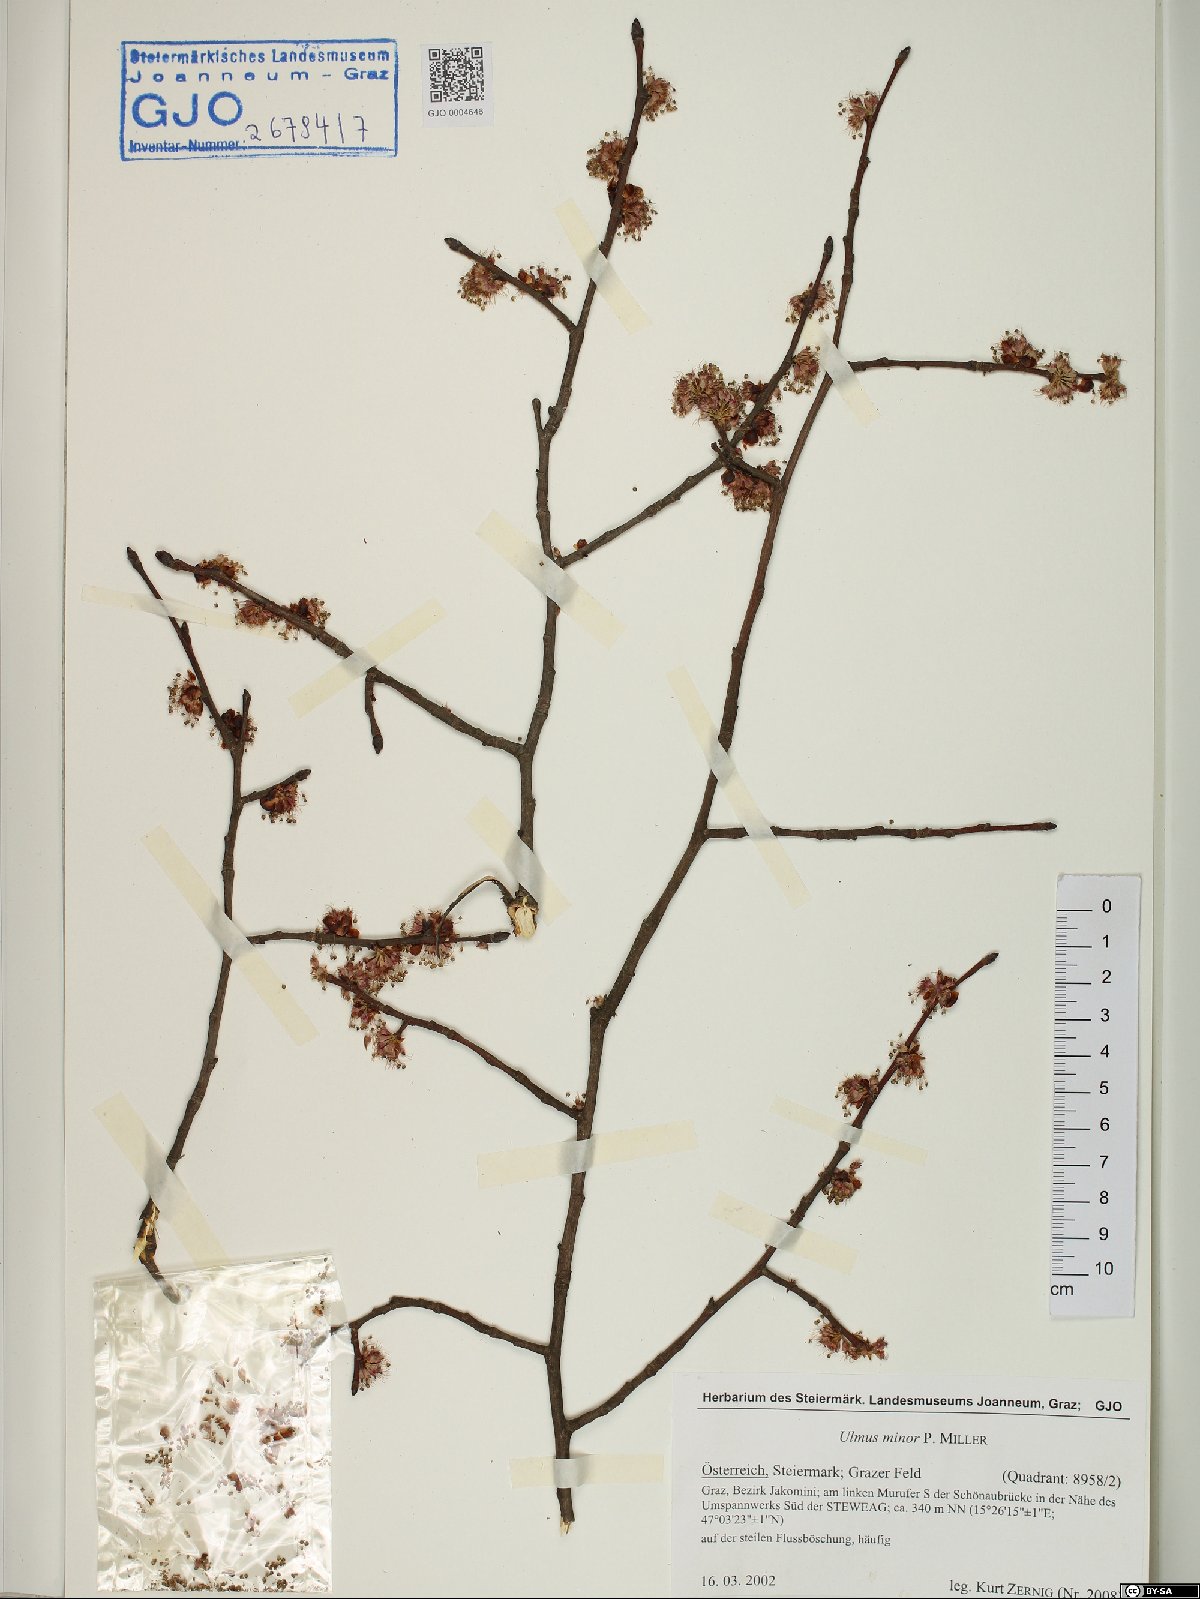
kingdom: Plantae
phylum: Tracheophyta
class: Magnoliopsida
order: Rosales
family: Ulmaceae
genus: Ulmus
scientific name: Ulmus minor
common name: Small-leaved elm
